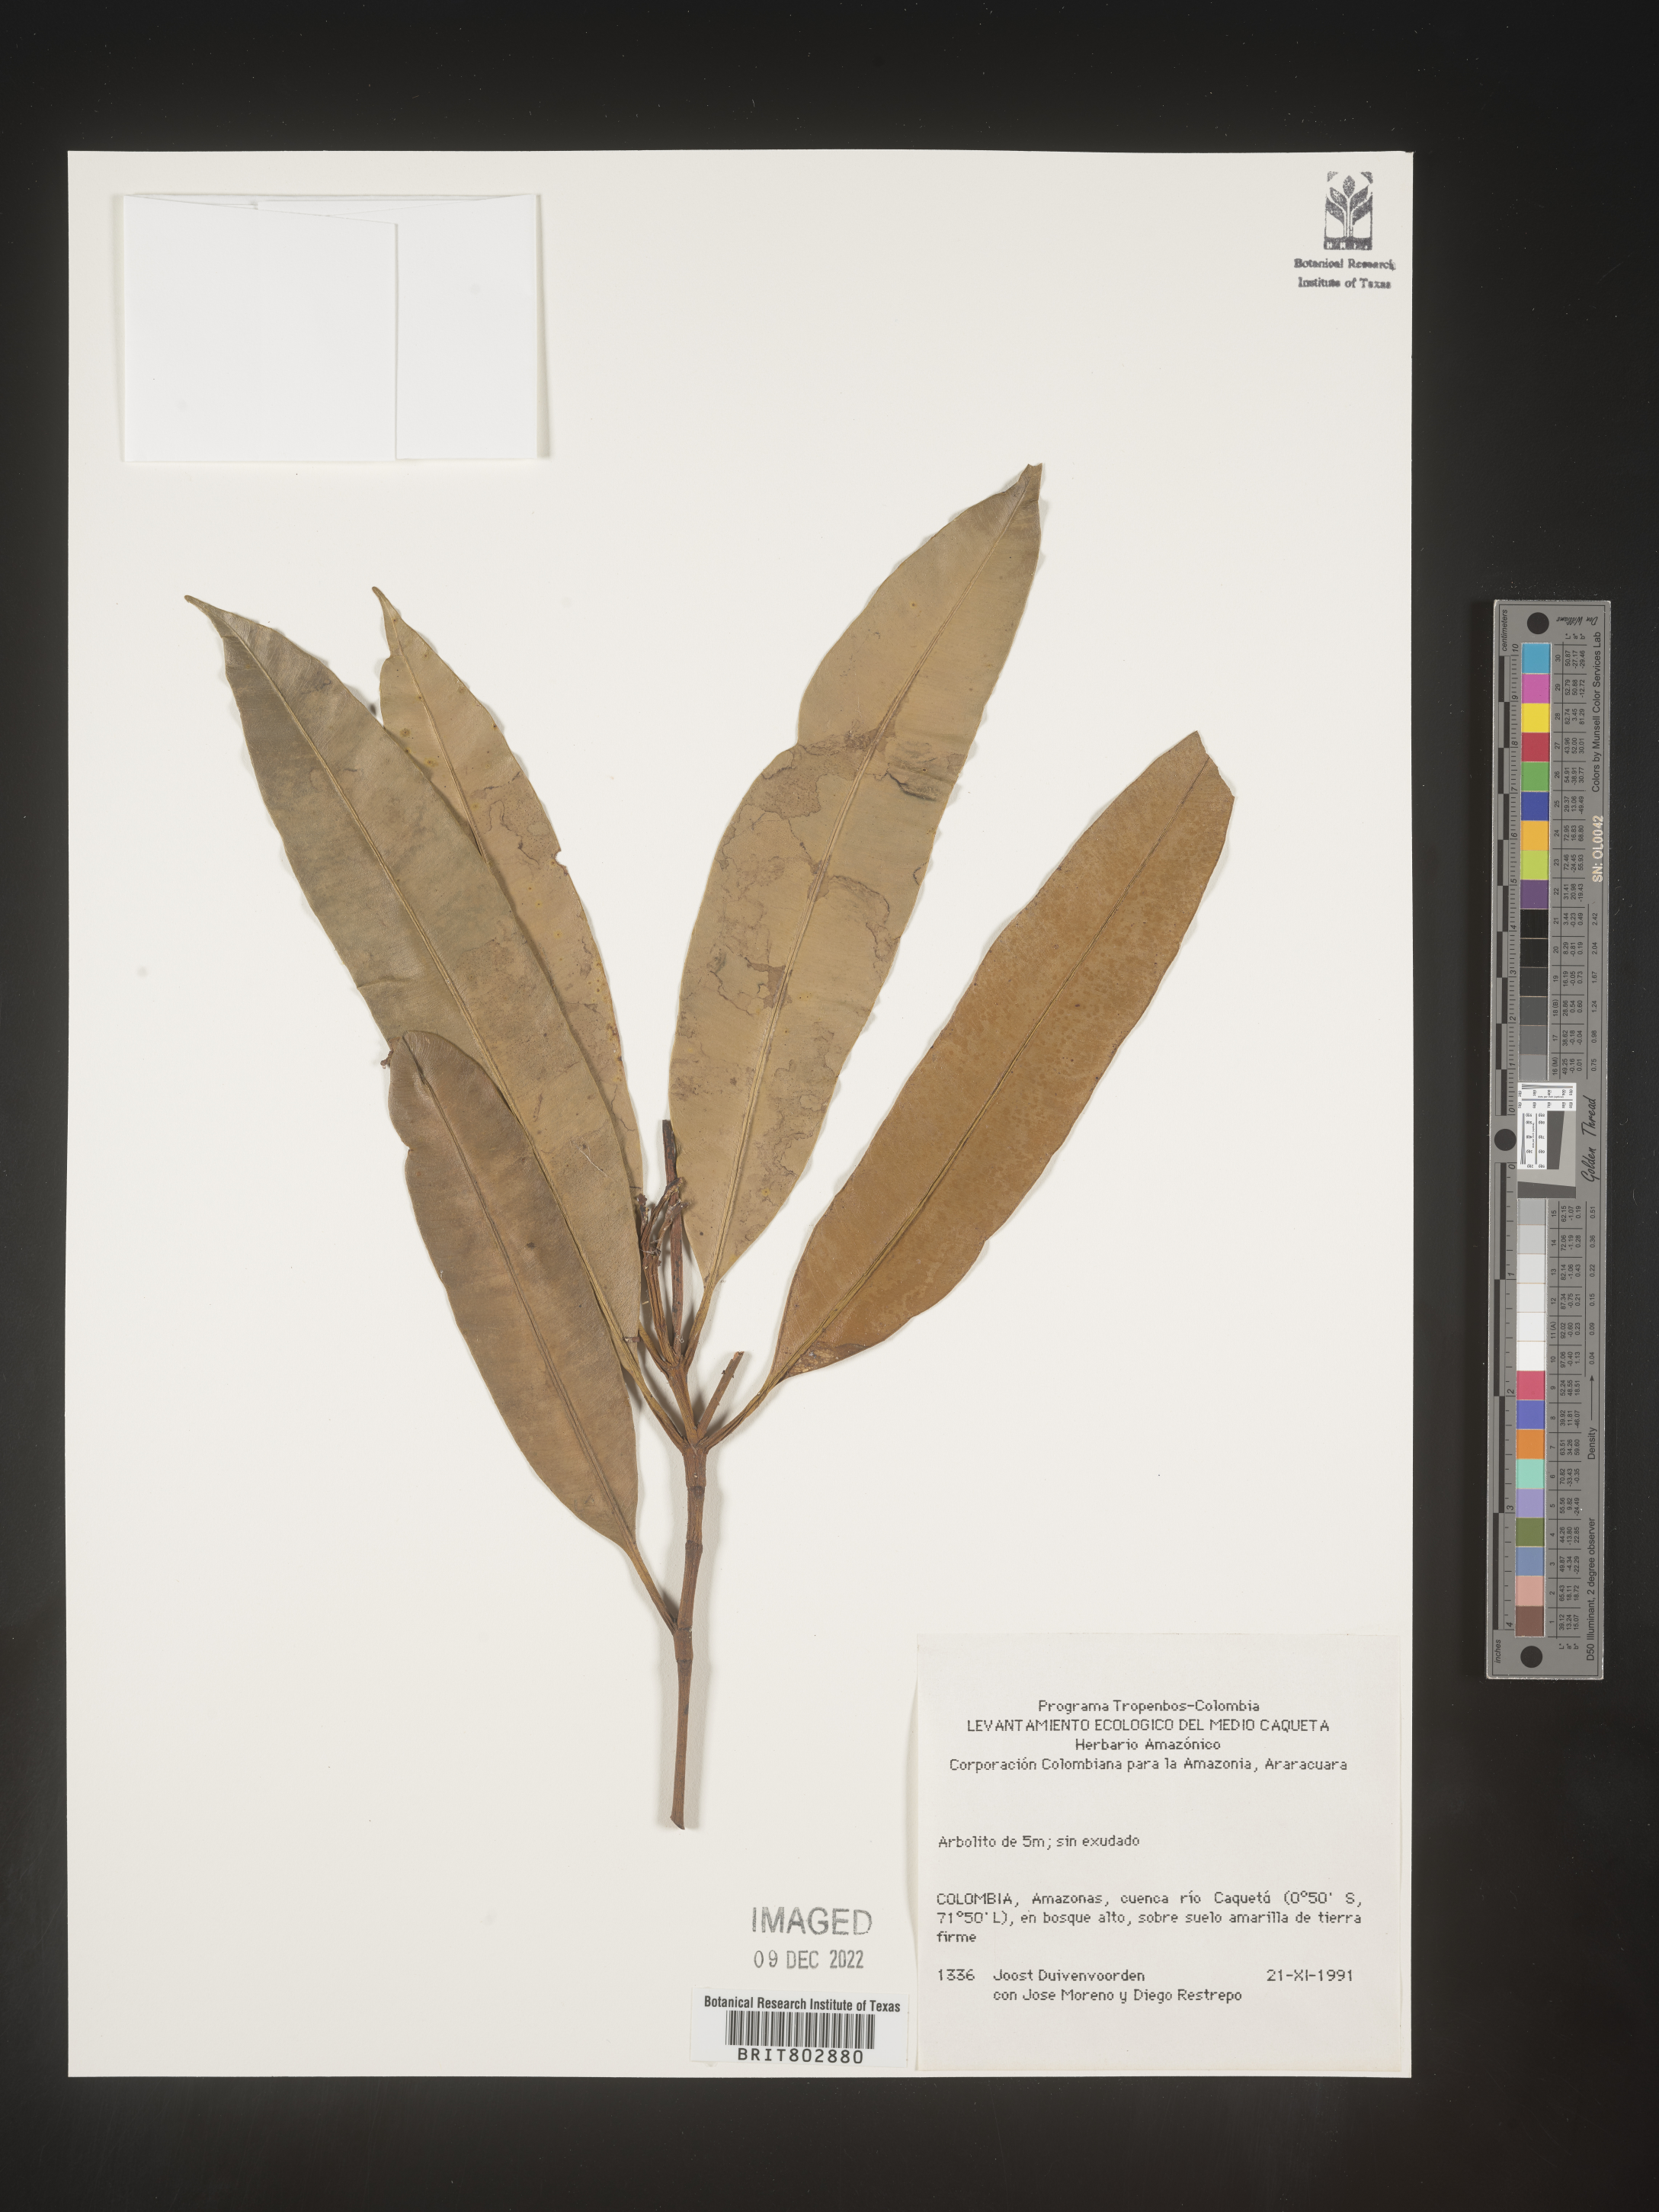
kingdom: Plantae
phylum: Tracheophyta
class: Magnoliopsida
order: Malpighiales
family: Clusiaceae
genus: Lorostemon
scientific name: Lorostemon
